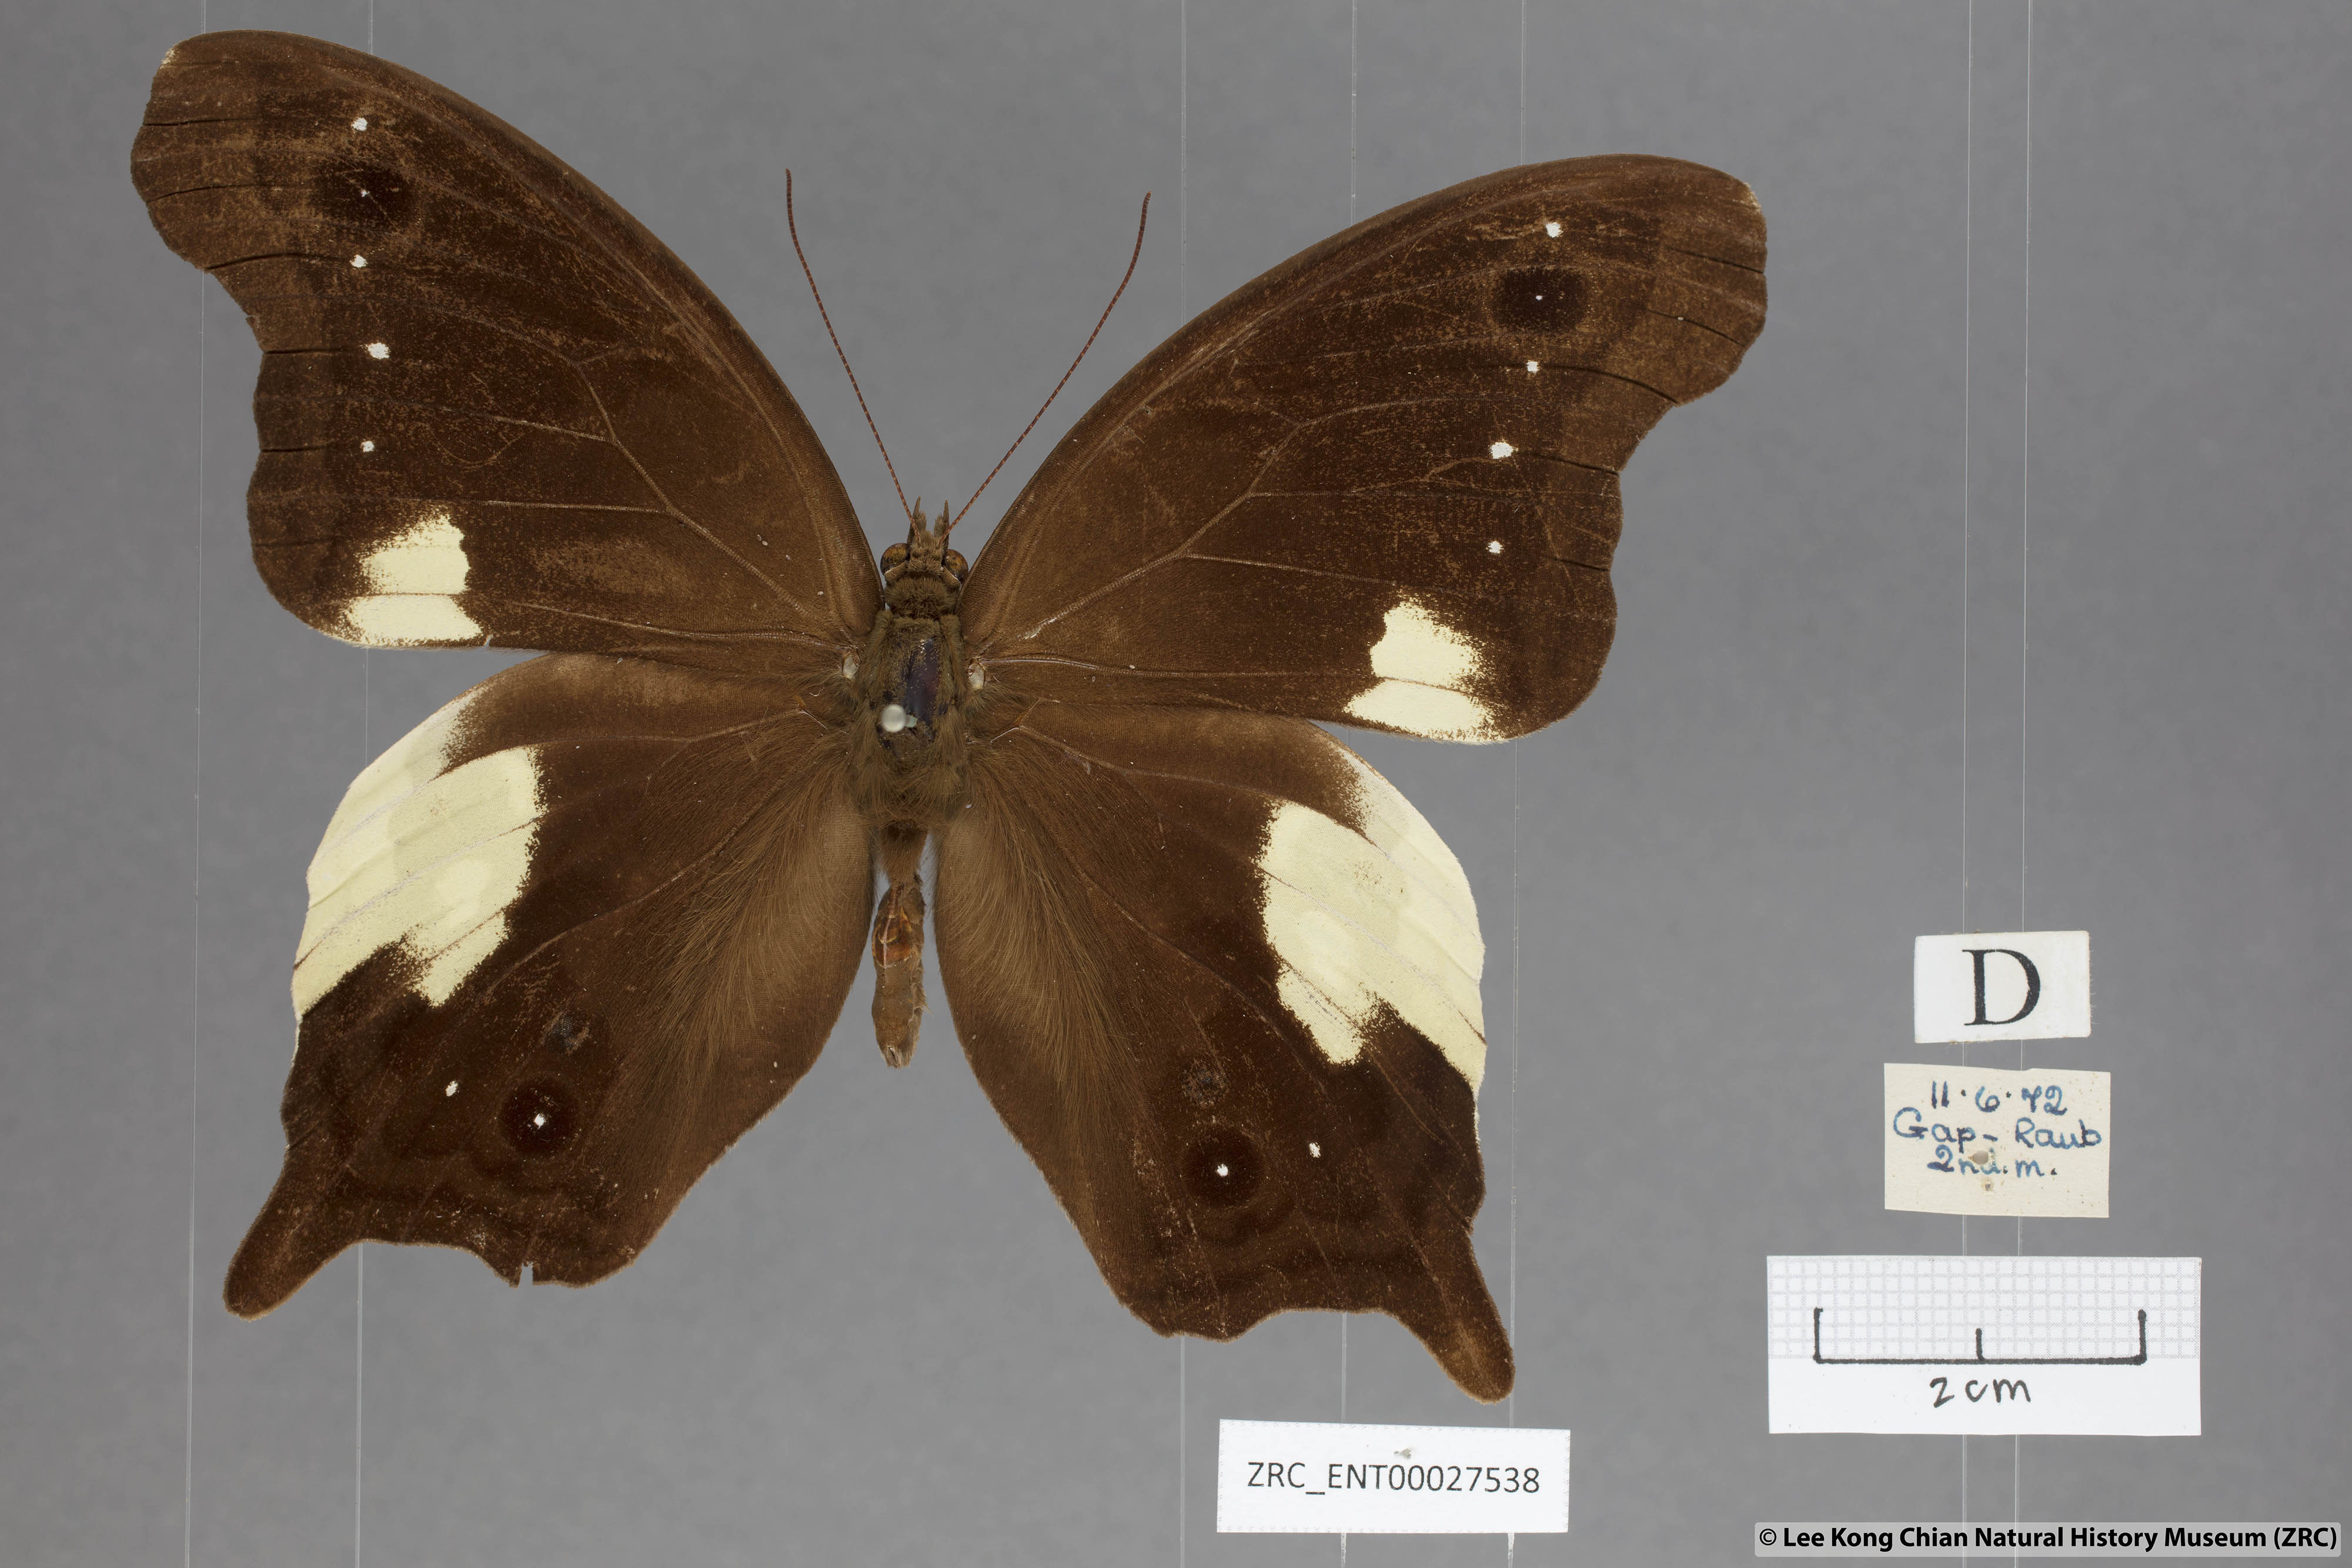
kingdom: Animalia
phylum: Arthropoda
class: Insecta
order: Lepidoptera
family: Nymphalidae
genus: Neorina
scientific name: Neorina lowii
